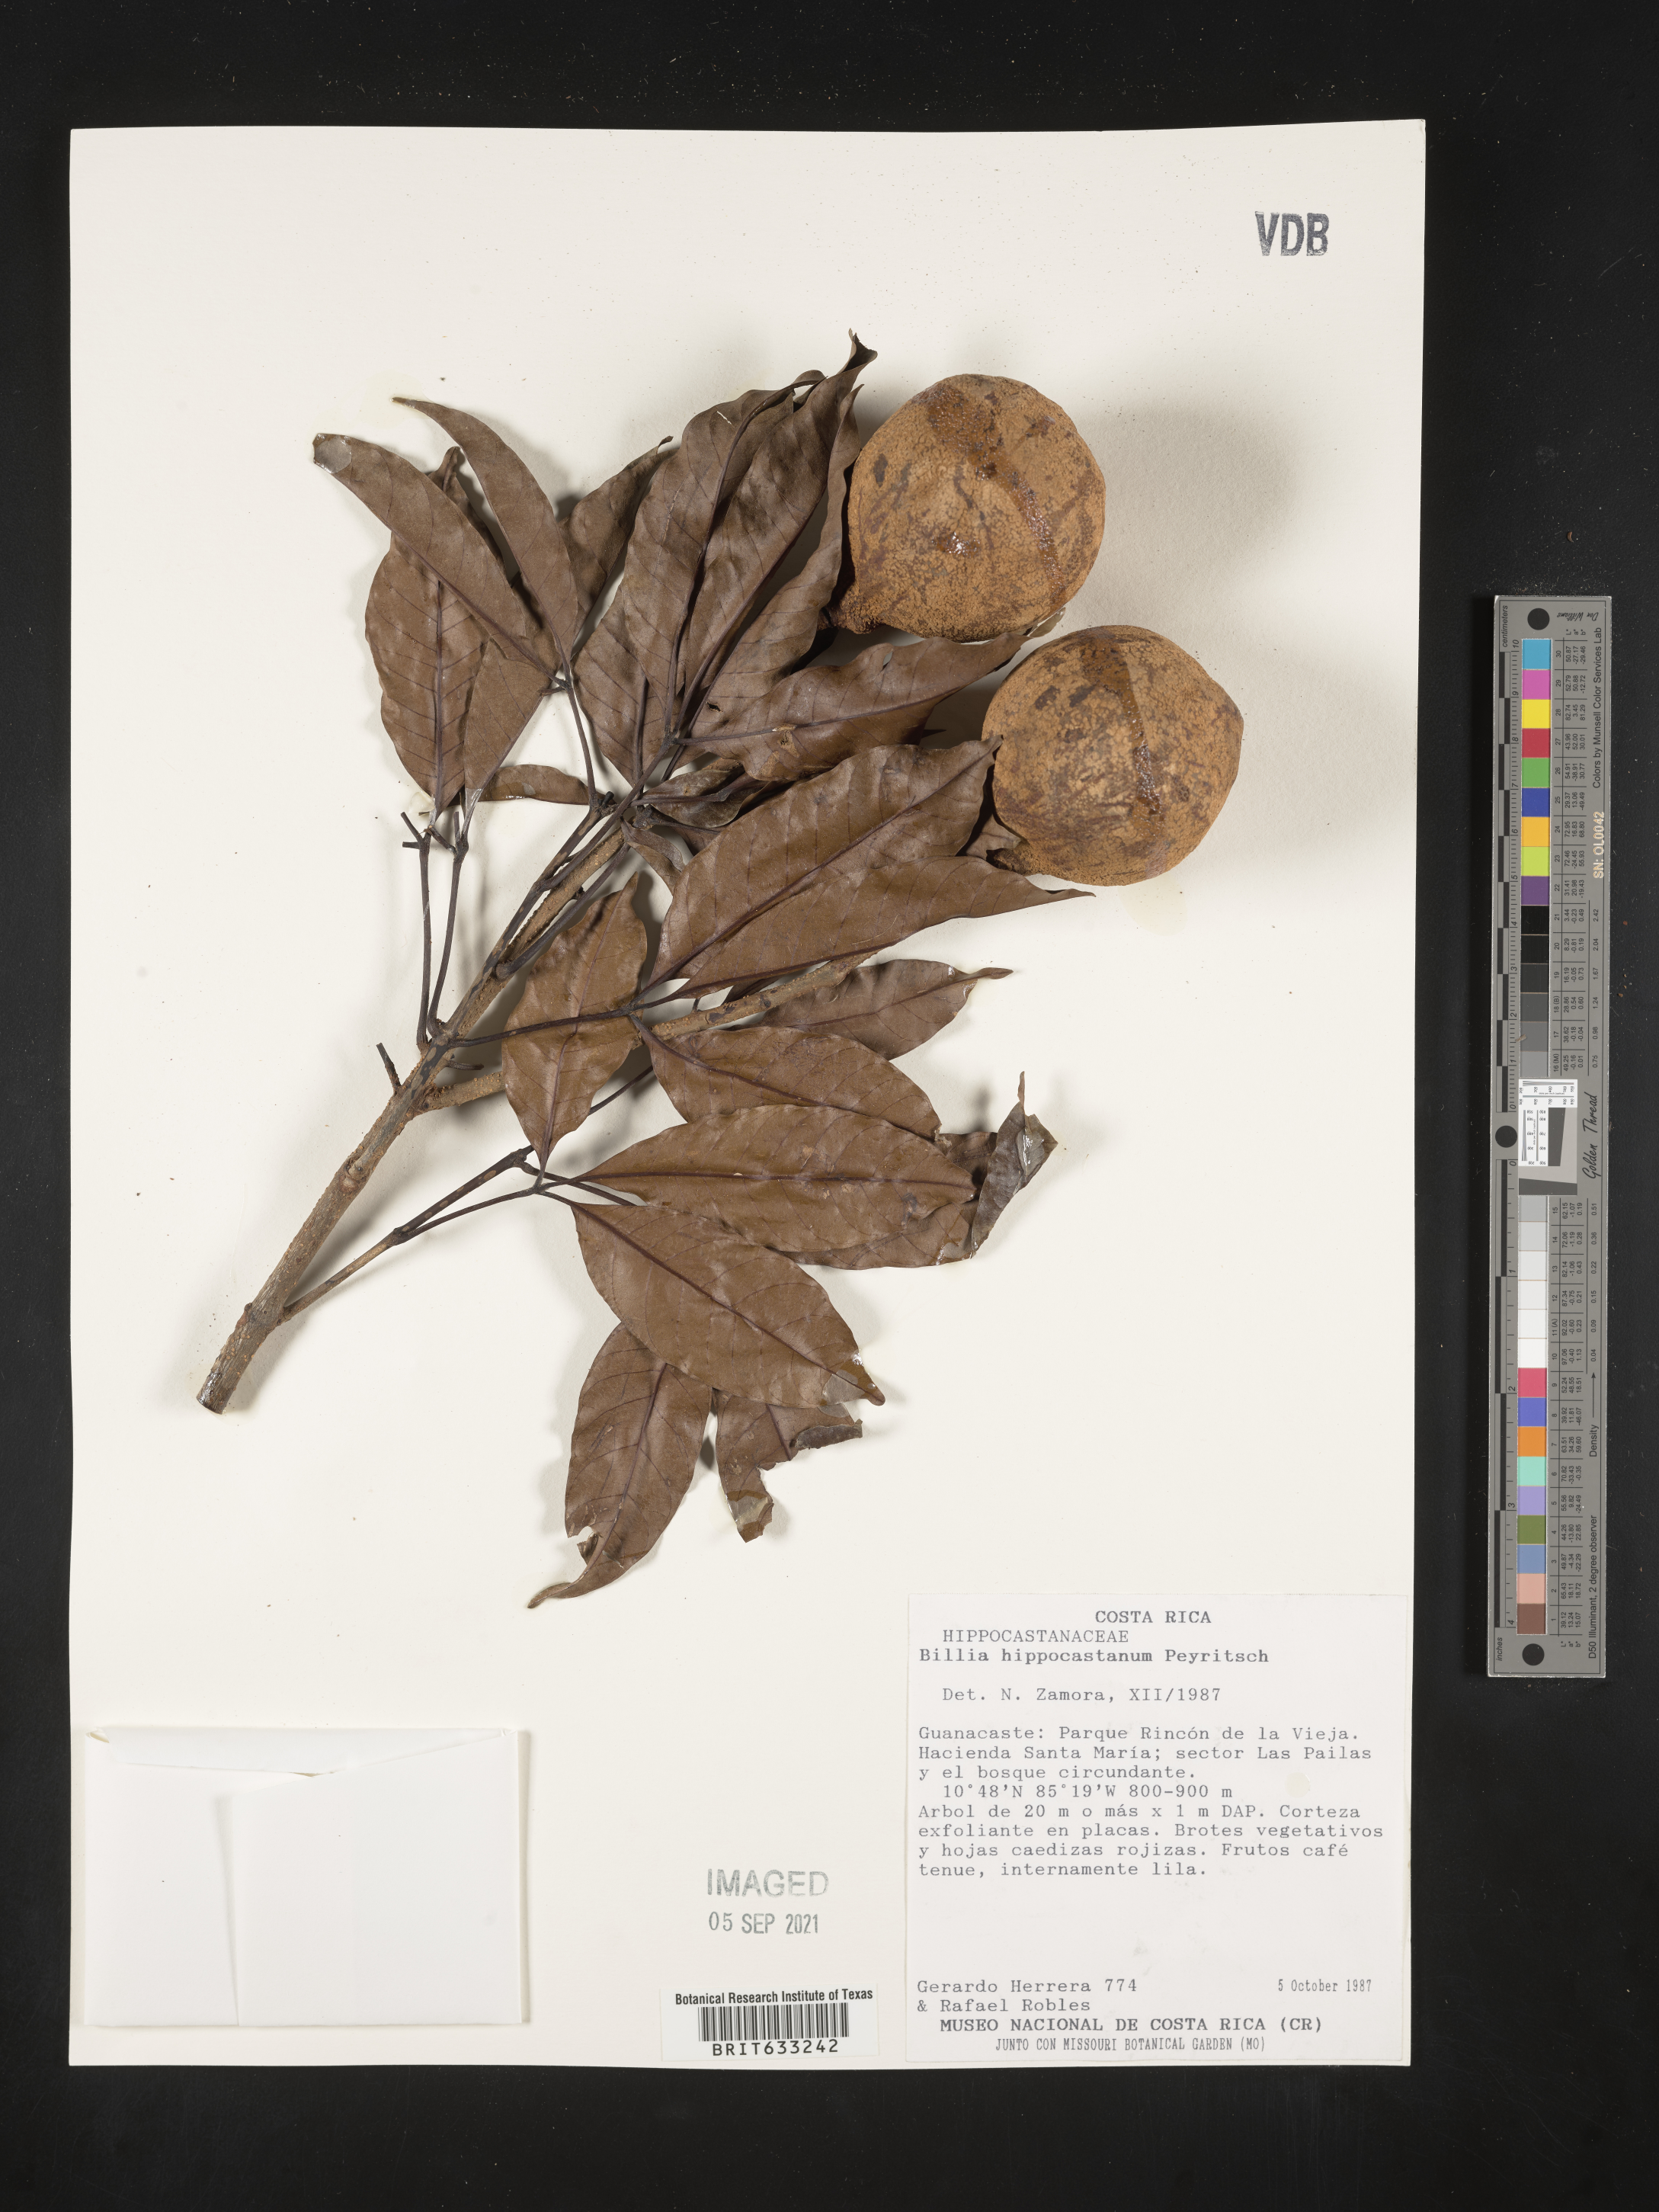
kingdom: Plantae
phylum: Tracheophyta
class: Magnoliopsida
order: Sapindales
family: Sapindaceae
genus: Billia
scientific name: Billia
